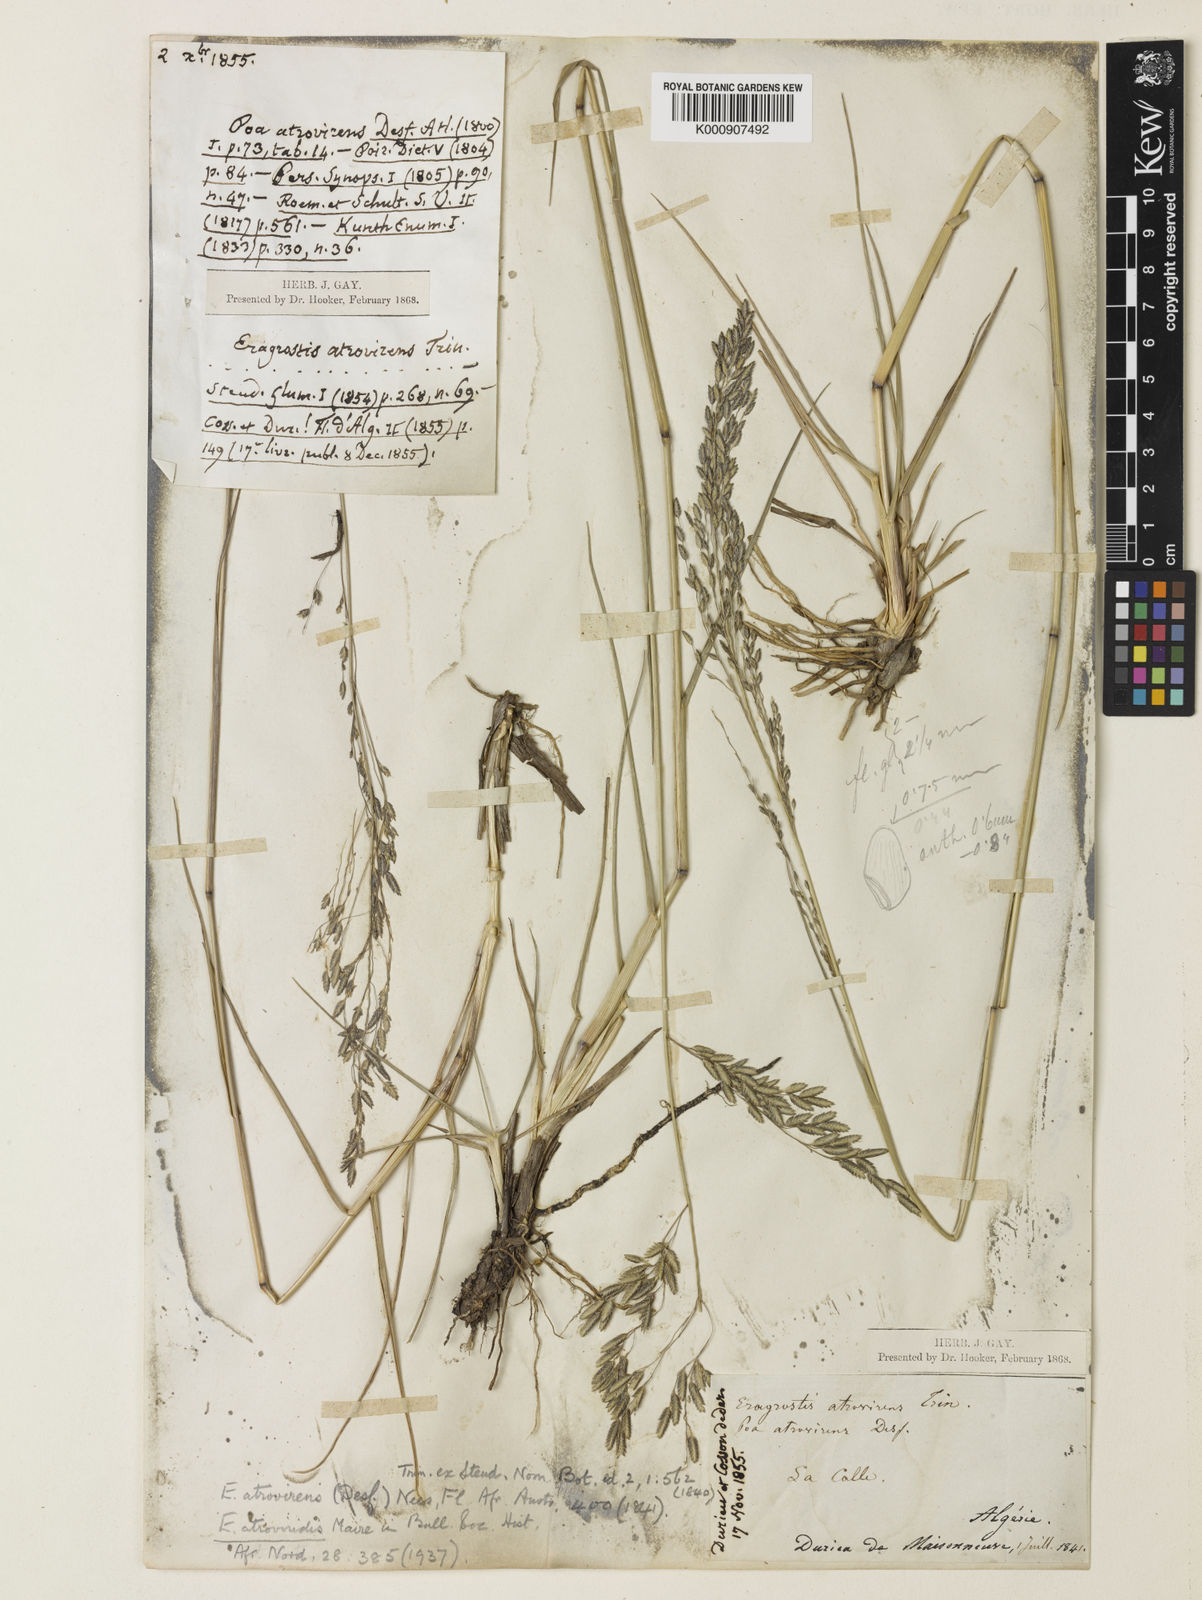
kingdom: Plantae
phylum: Tracheophyta
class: Liliopsida
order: Poales
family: Poaceae
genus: Eragrostis
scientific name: Eragrostis atrovirens
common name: Thalia lovegrass
